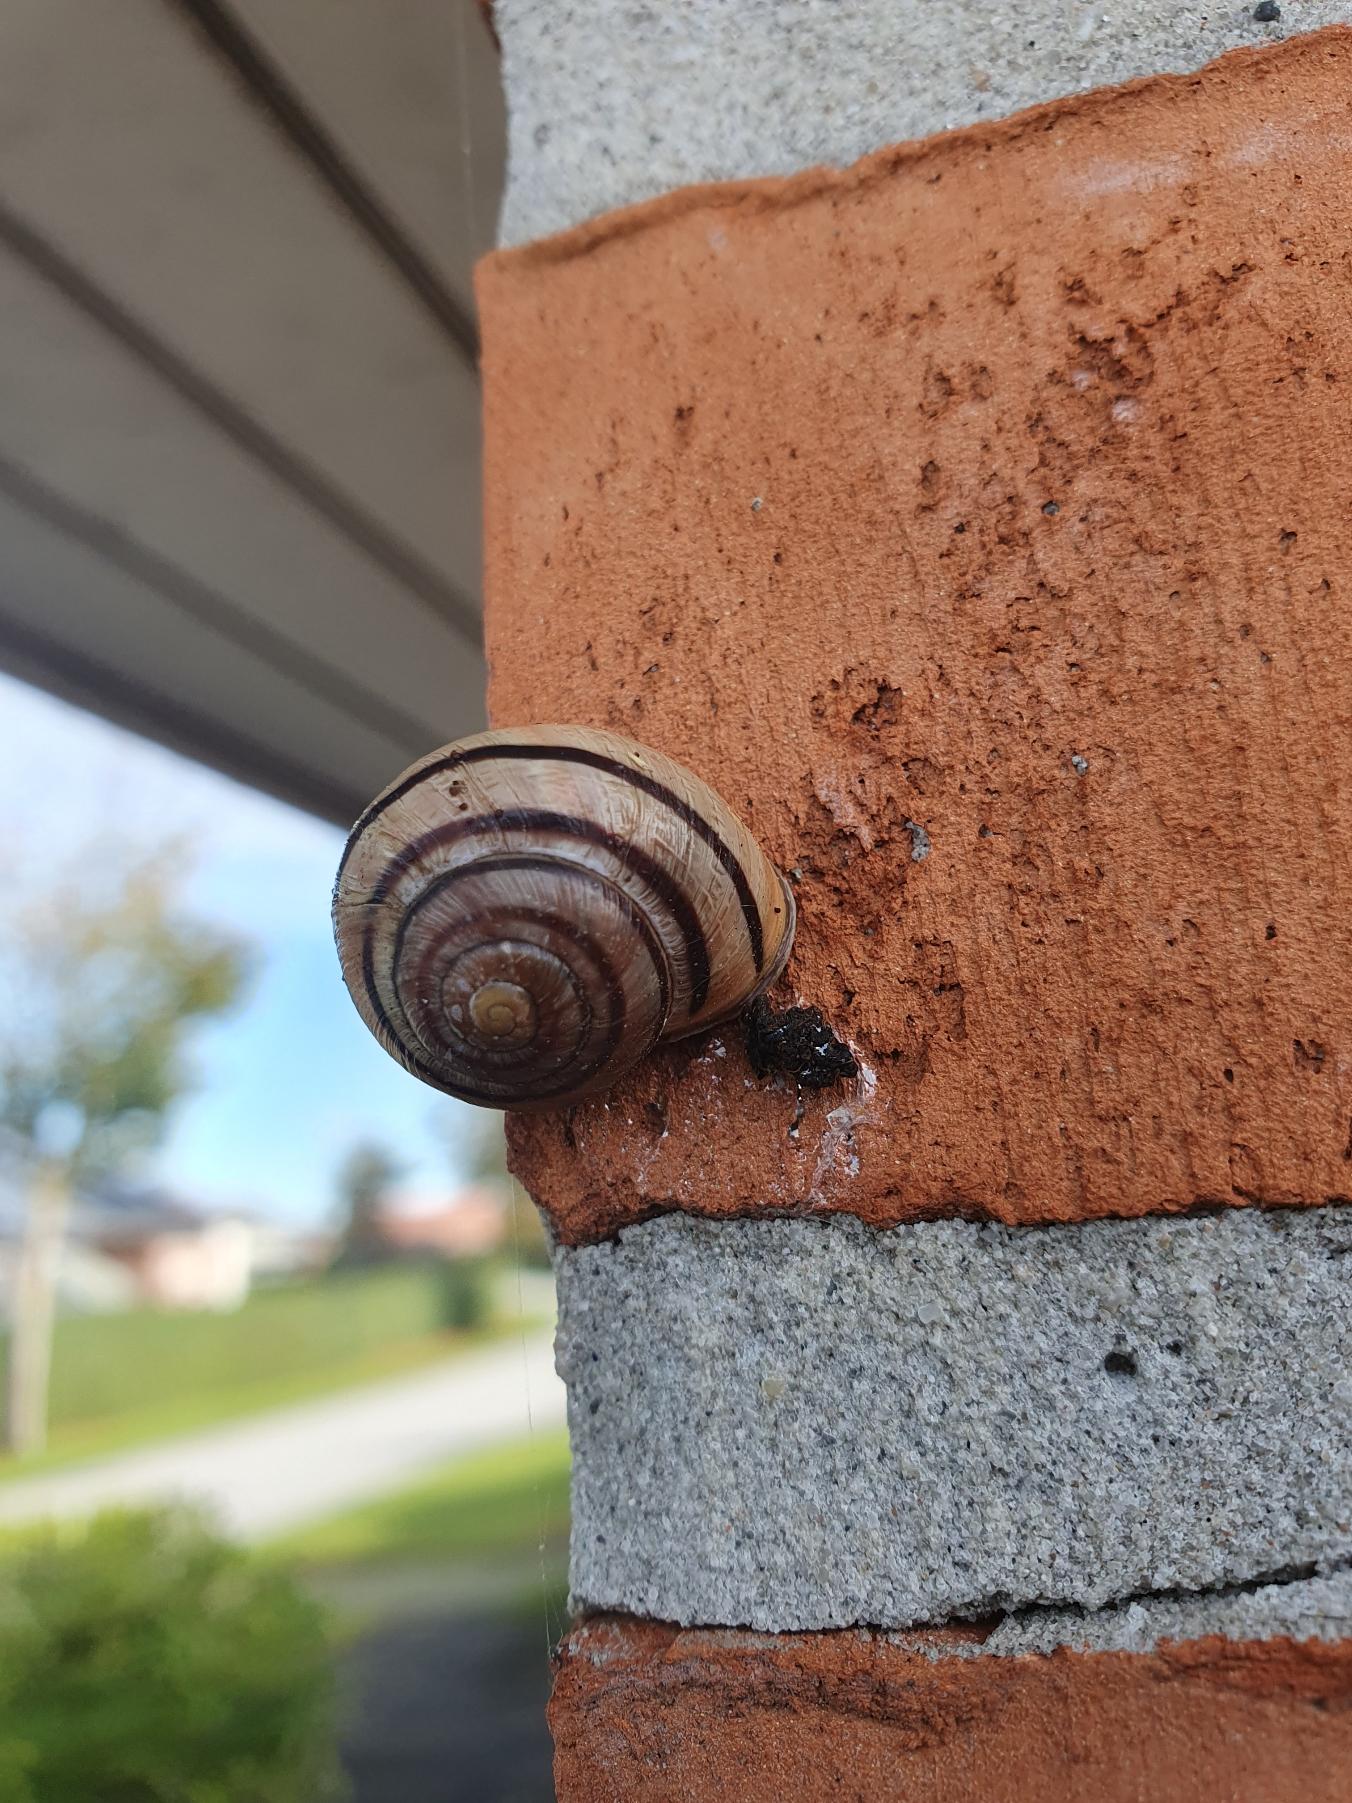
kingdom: Animalia
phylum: Mollusca
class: Gastropoda
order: Stylommatophora
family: Helicidae
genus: Cepaea
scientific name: Cepaea nemoralis
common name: Lundsnegl
